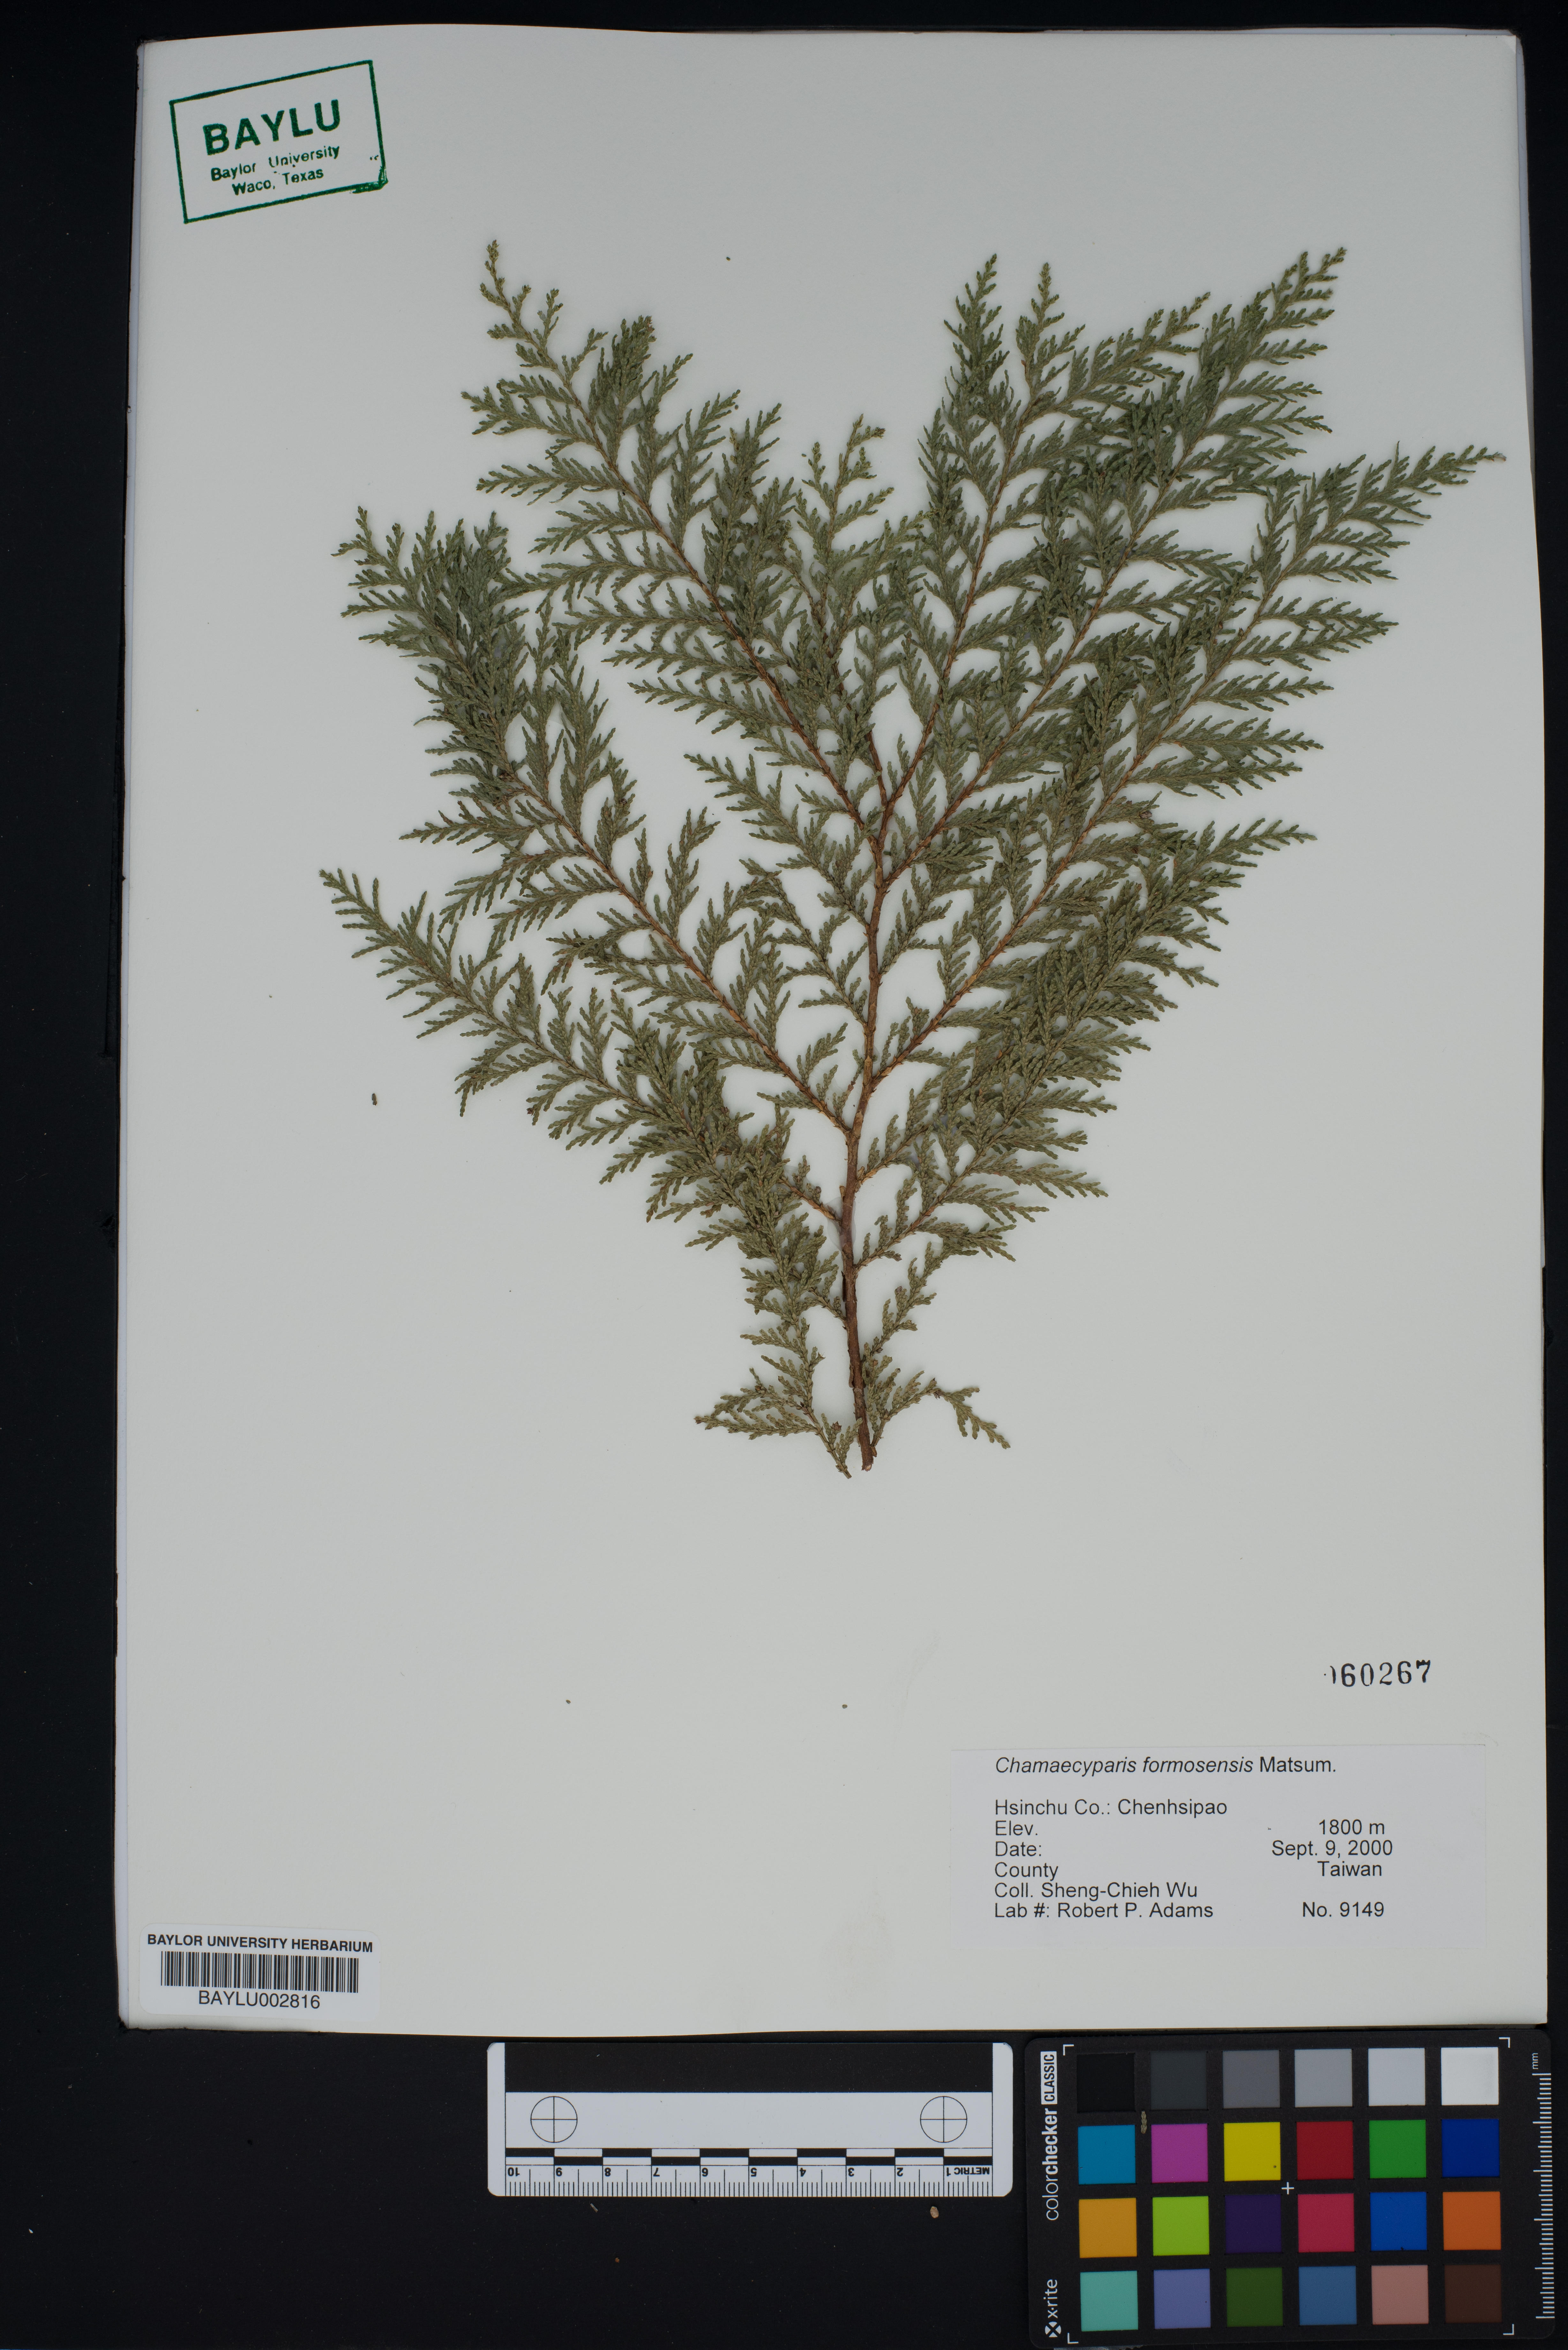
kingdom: Plantae
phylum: Tracheophyta
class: Pinopsida
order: Pinales
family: Cupressaceae
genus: Chamaecyparis
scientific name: Chamaecyparis formosensis
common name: Formosan cypress
